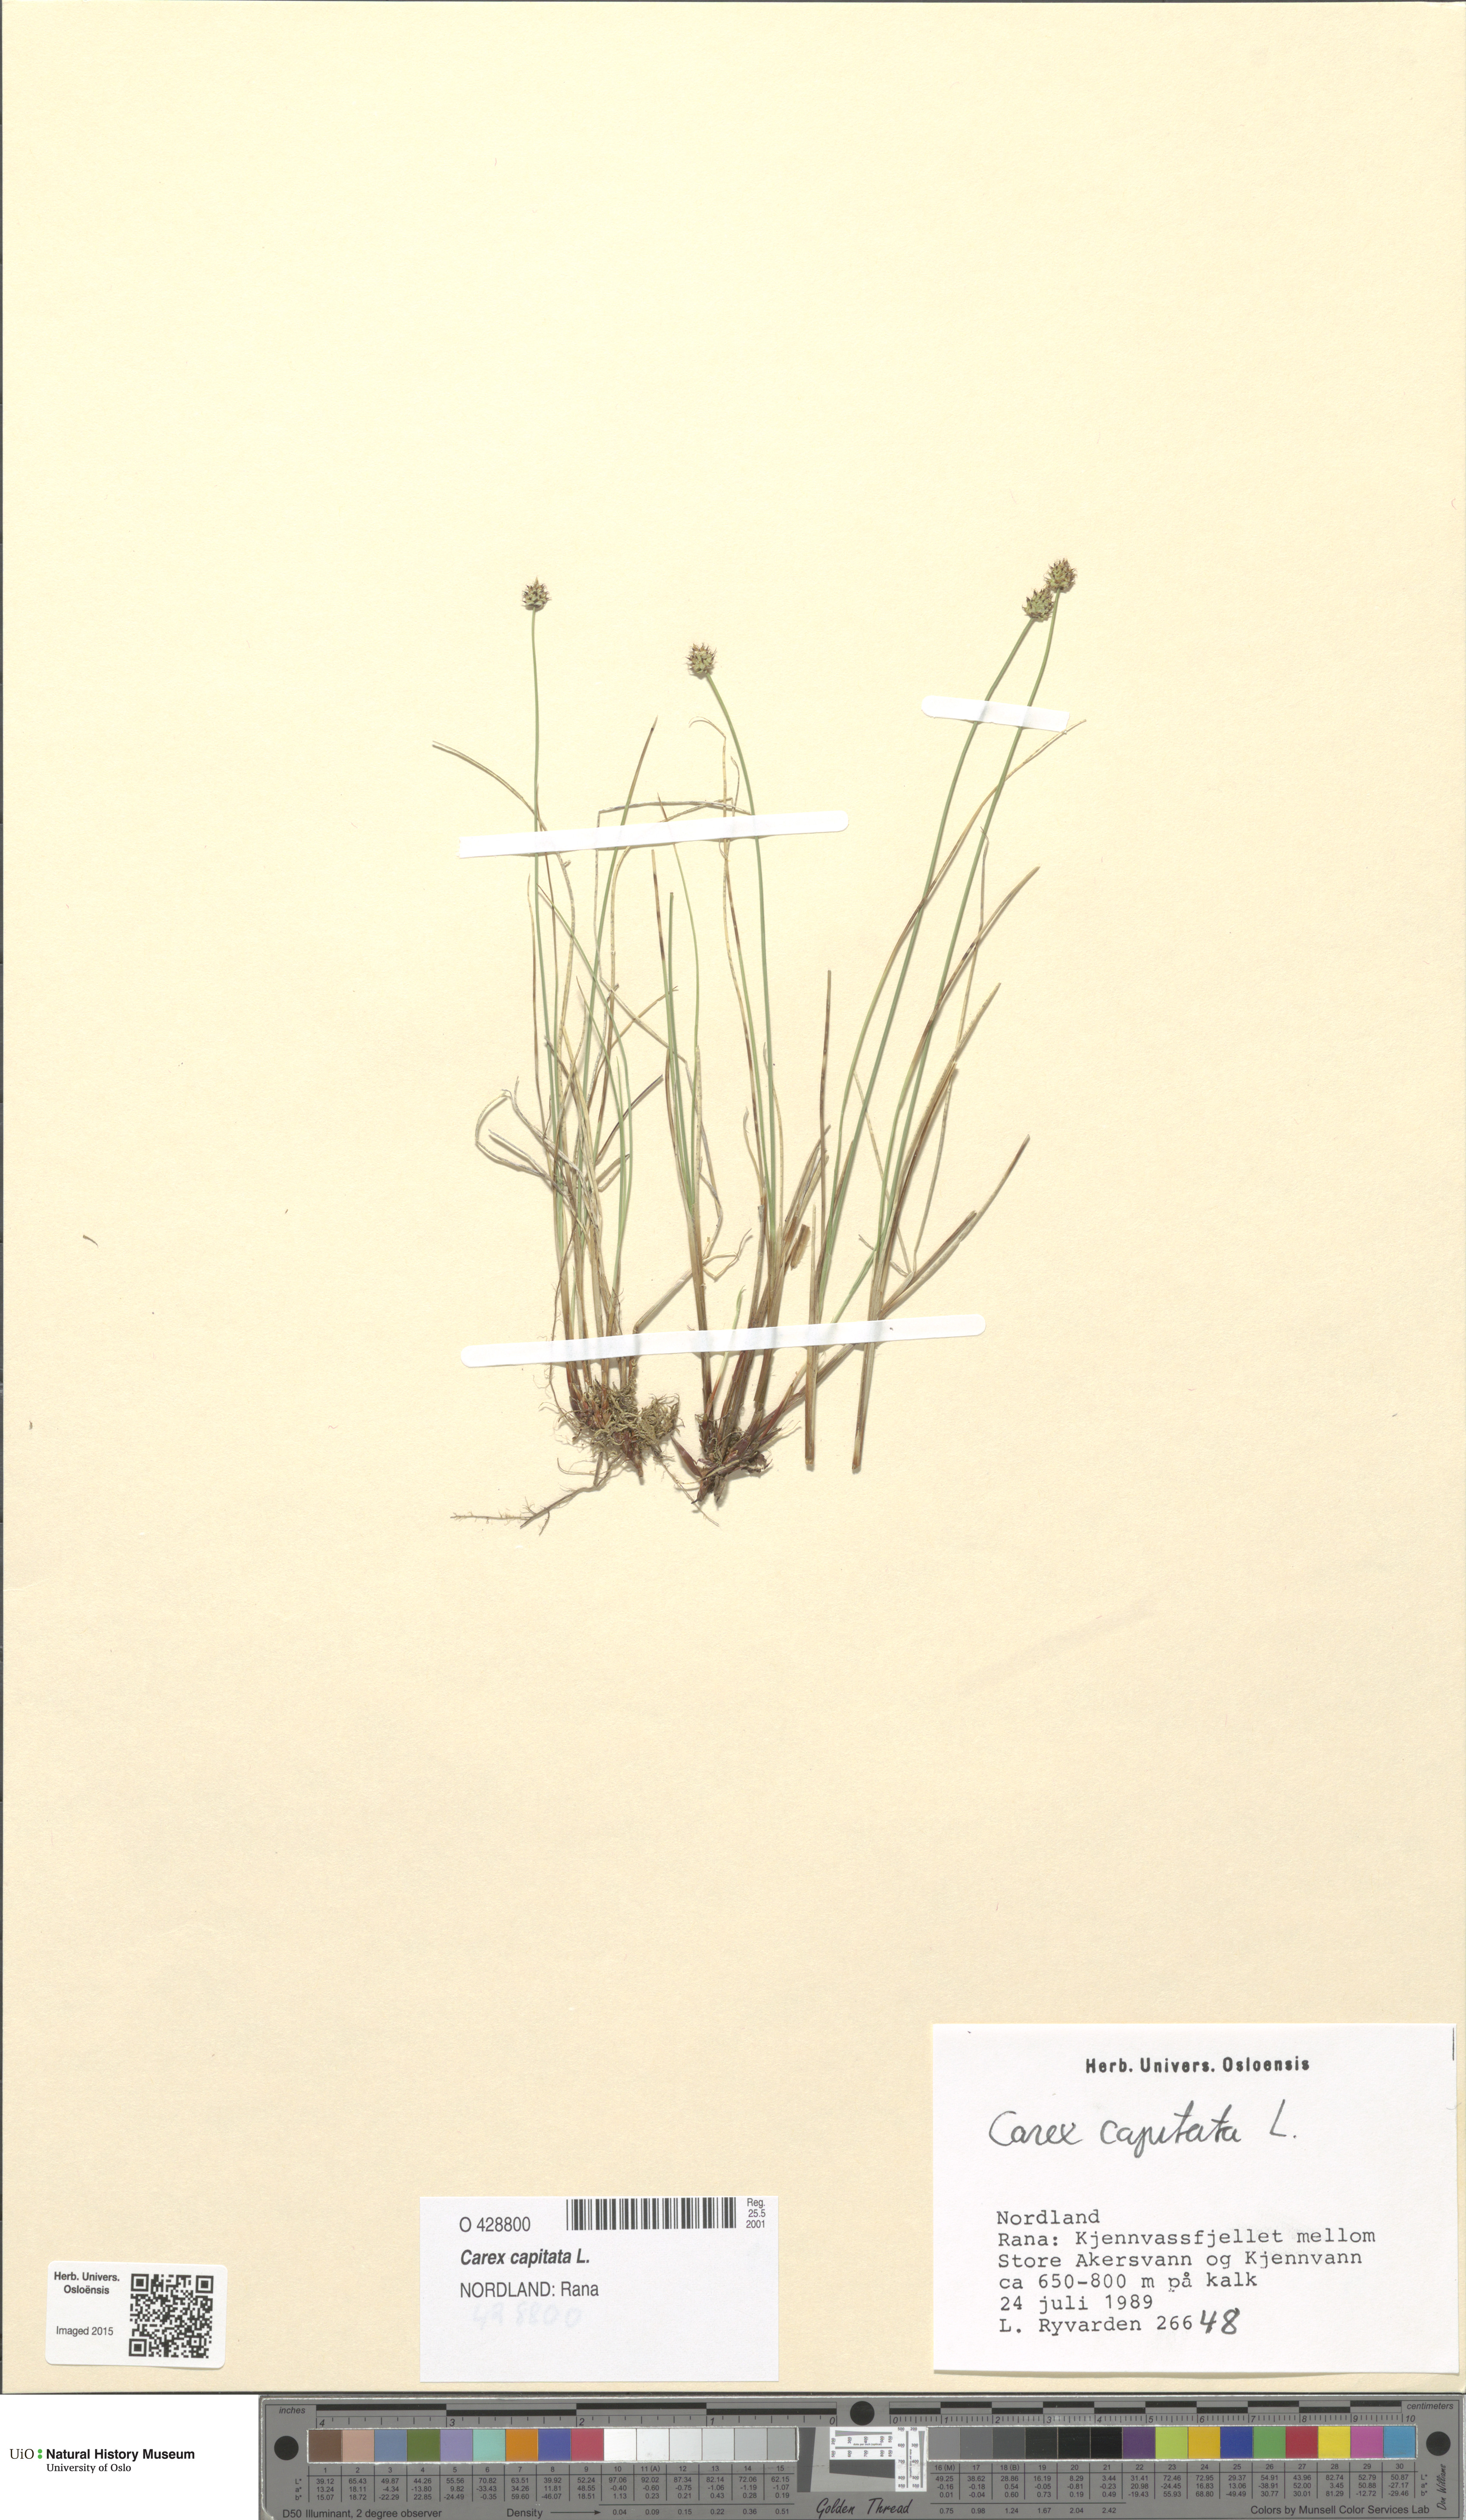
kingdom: Plantae
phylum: Tracheophyta
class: Liliopsida
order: Poales
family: Cyperaceae
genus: Carex
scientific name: Carex capitata
